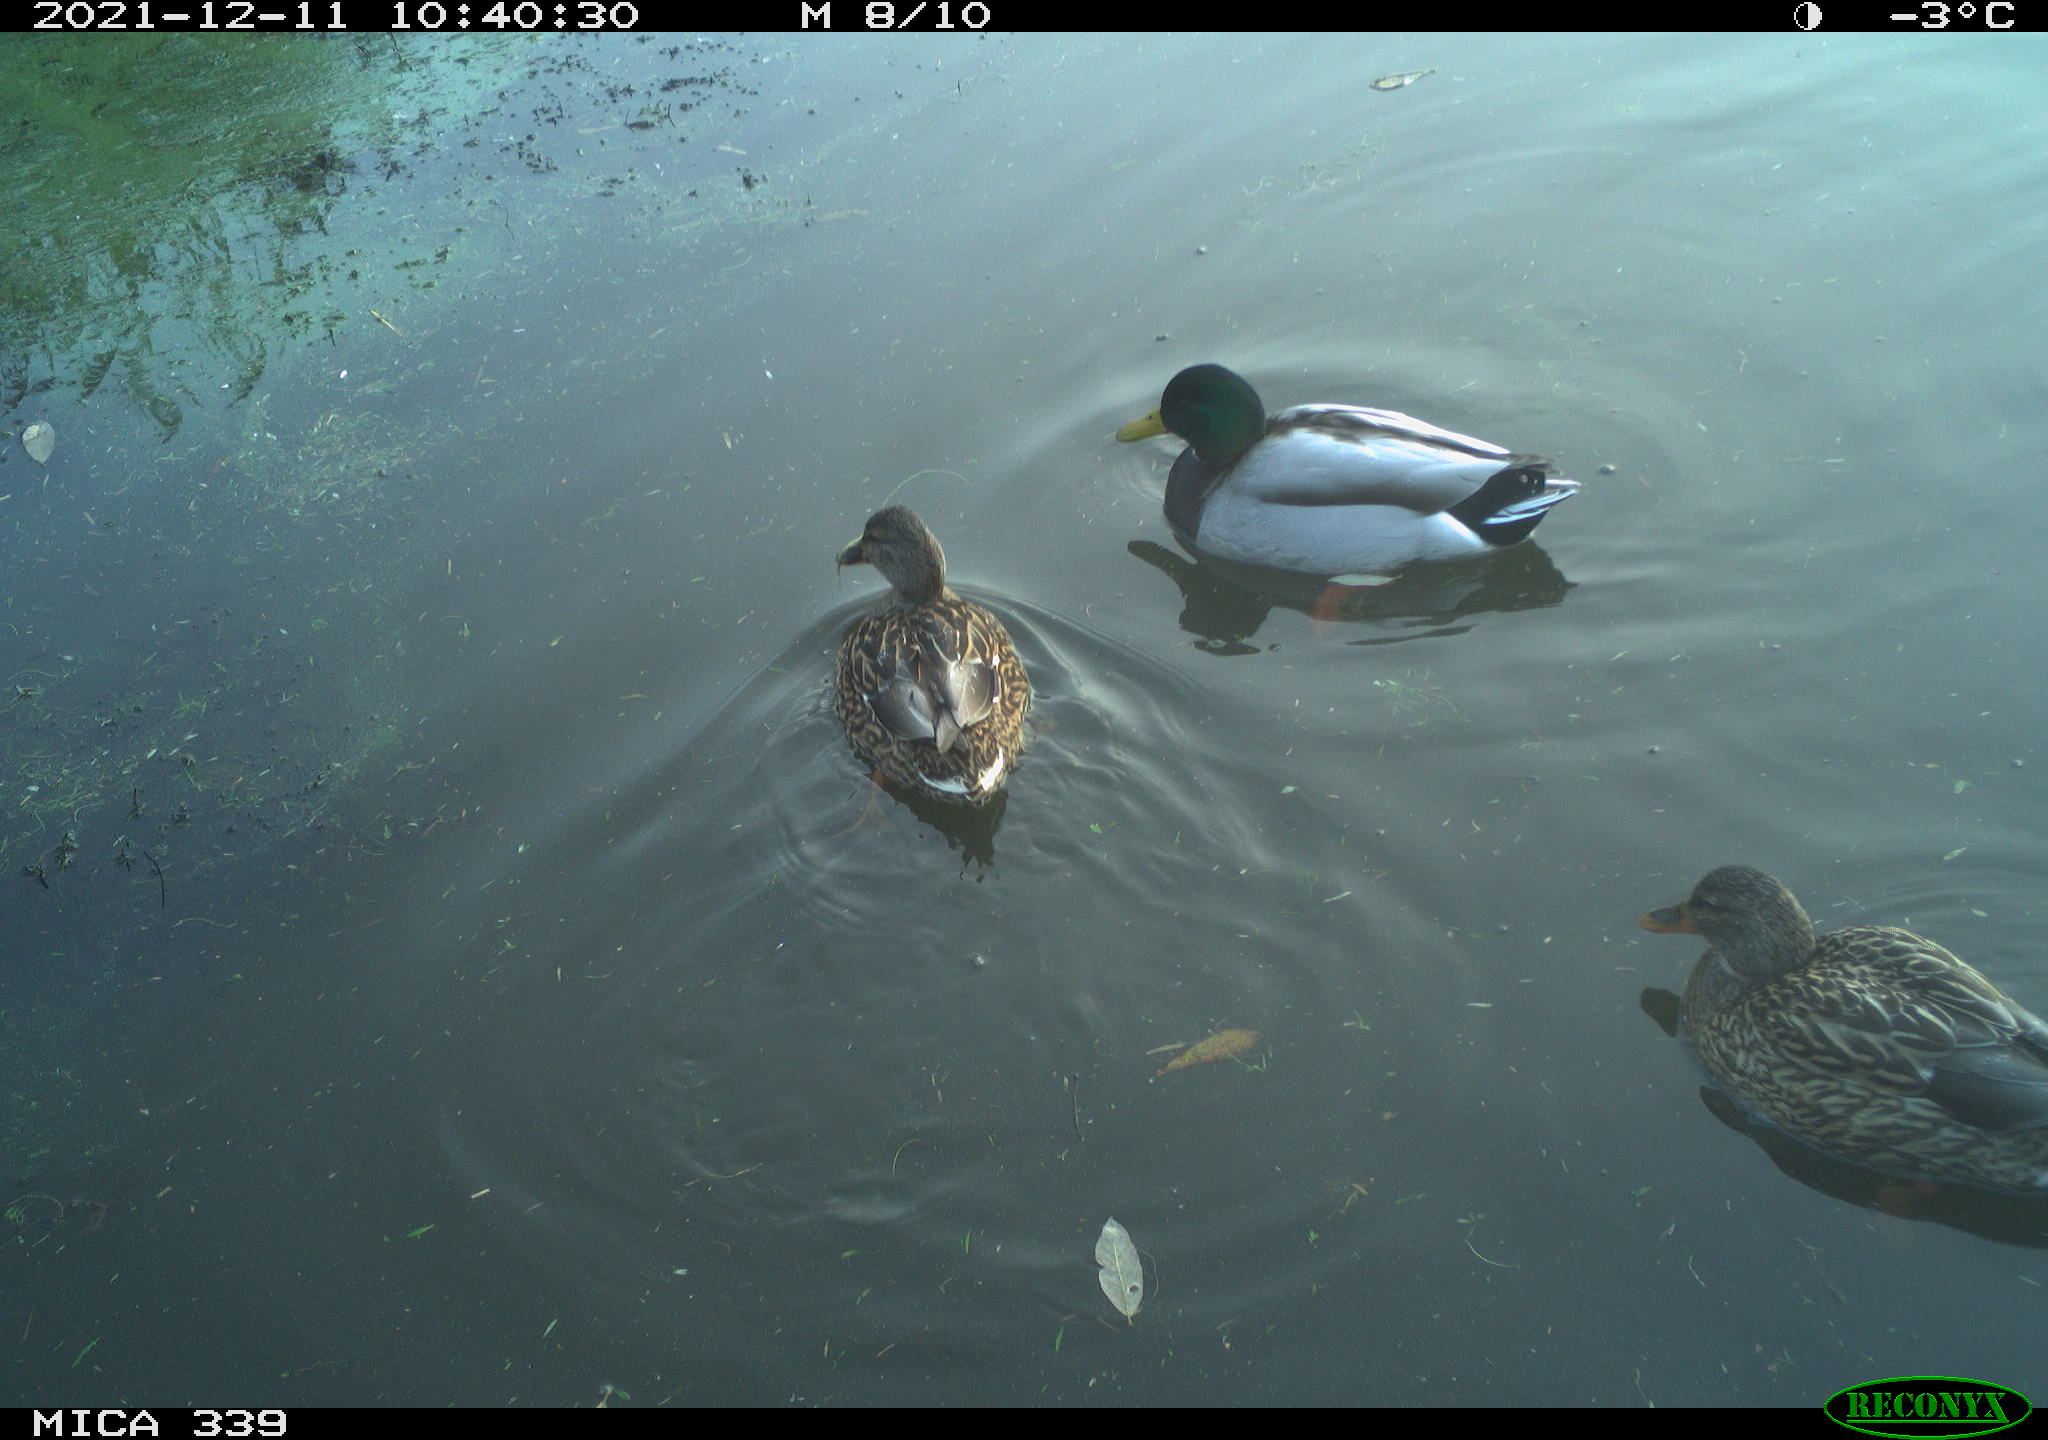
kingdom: Animalia
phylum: Chordata
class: Aves
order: Anseriformes
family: Anatidae
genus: Anas
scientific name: Anas platyrhynchos
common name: Mallard
